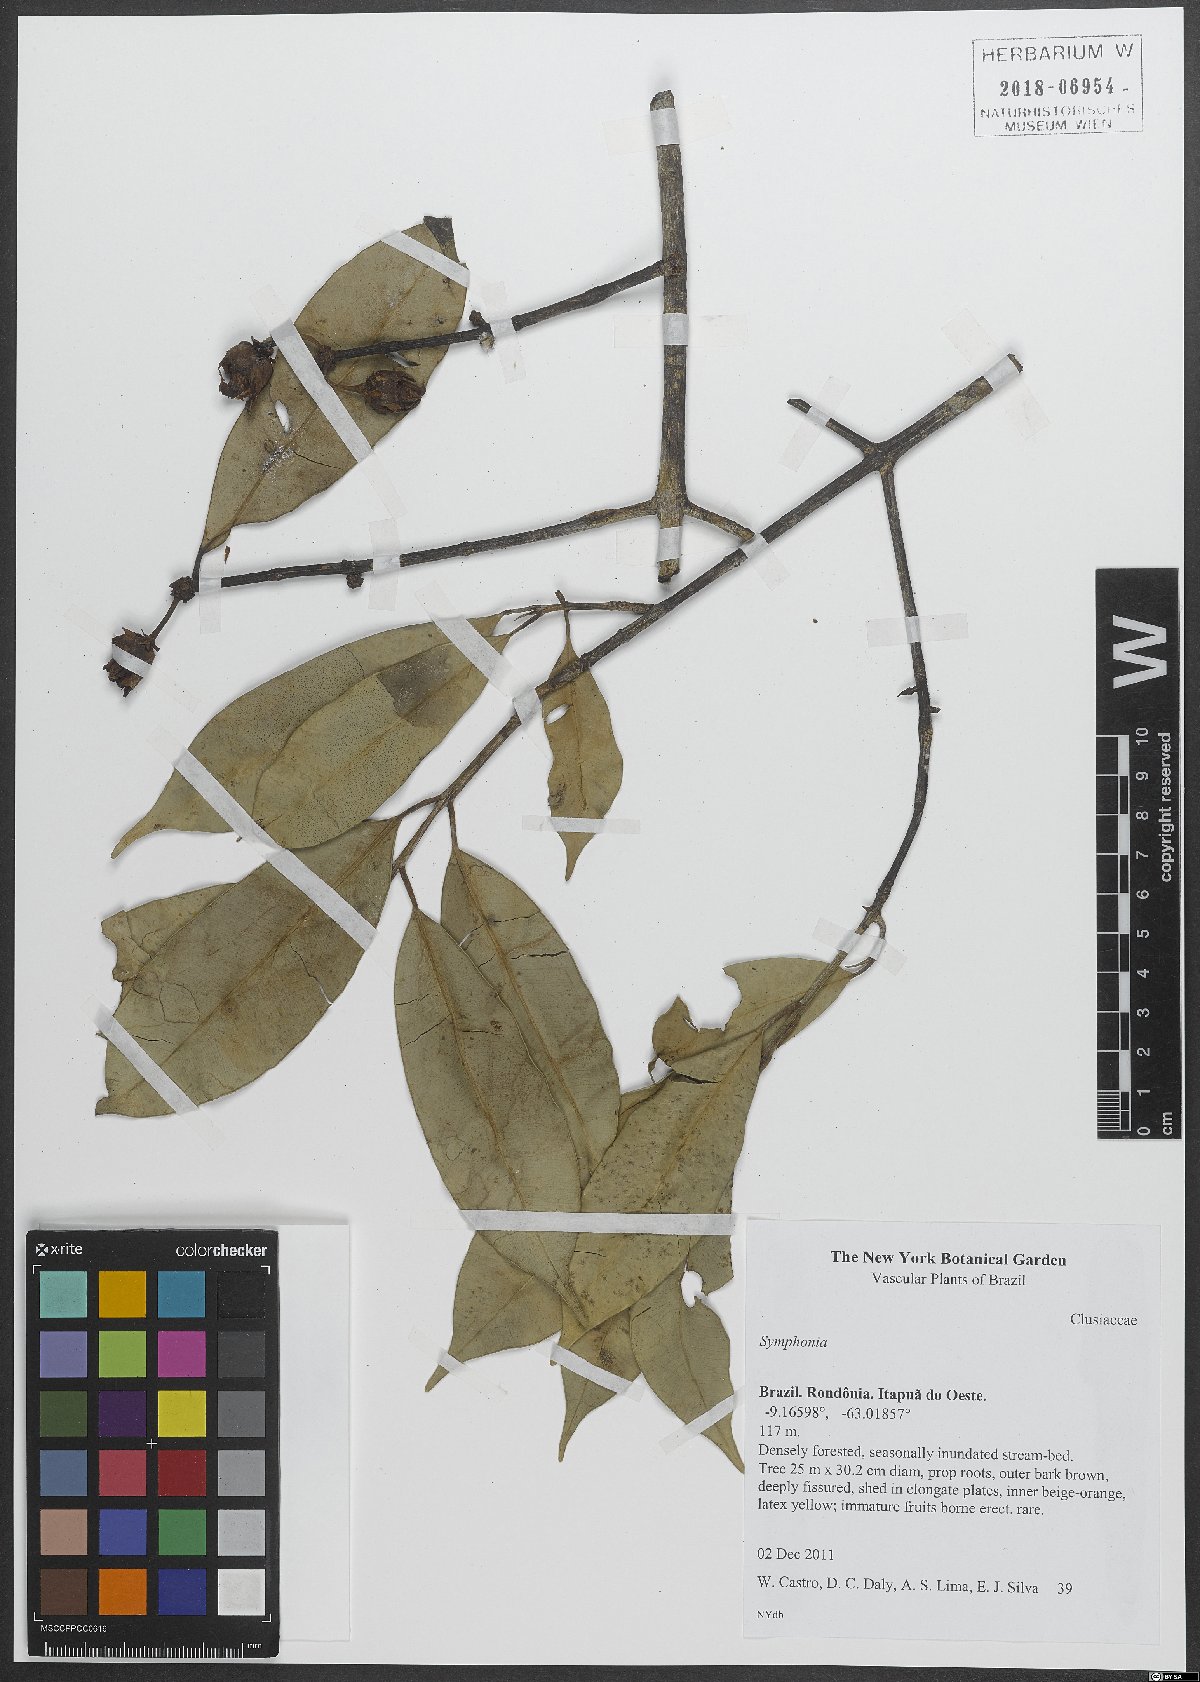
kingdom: Plantae
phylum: Tracheophyta
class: Magnoliopsida
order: Malpighiales
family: Clusiaceae
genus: Symphonia
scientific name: Symphonia
